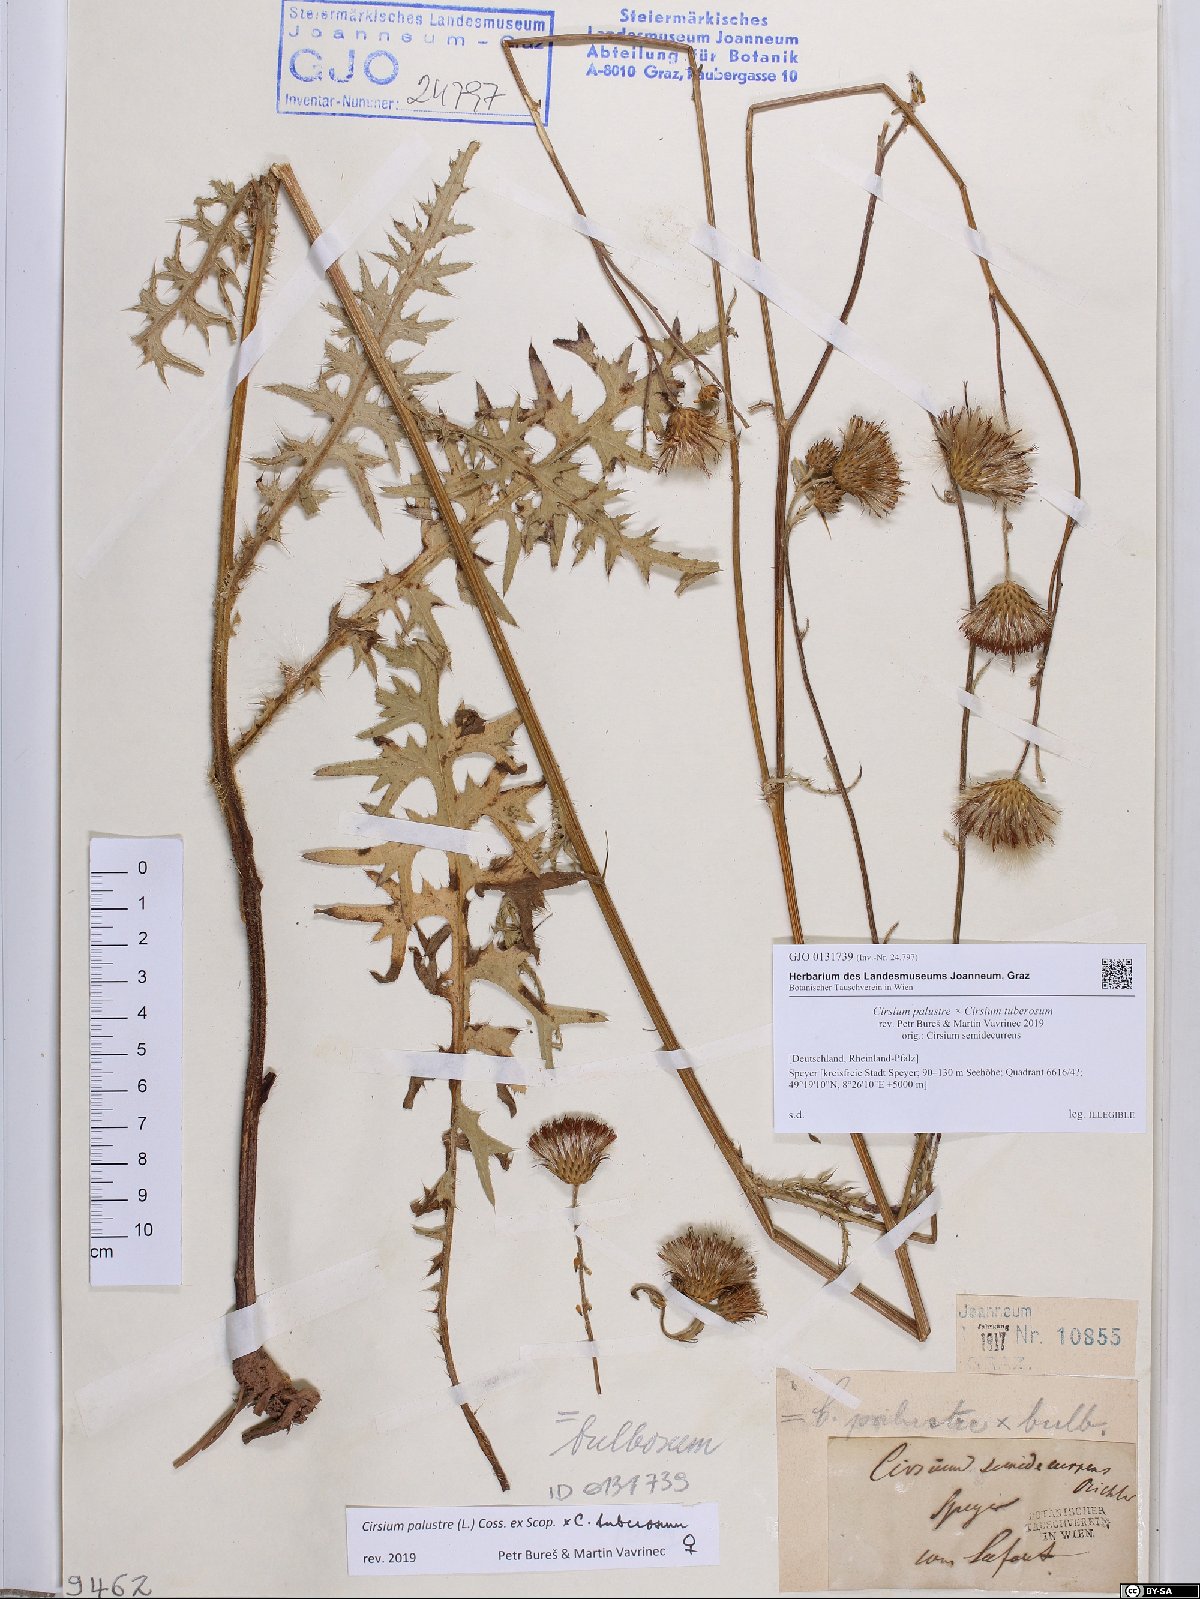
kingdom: Plantae
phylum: Tracheophyta
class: Magnoliopsida
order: Asterales
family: Asteraceae
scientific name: Asteraceae
